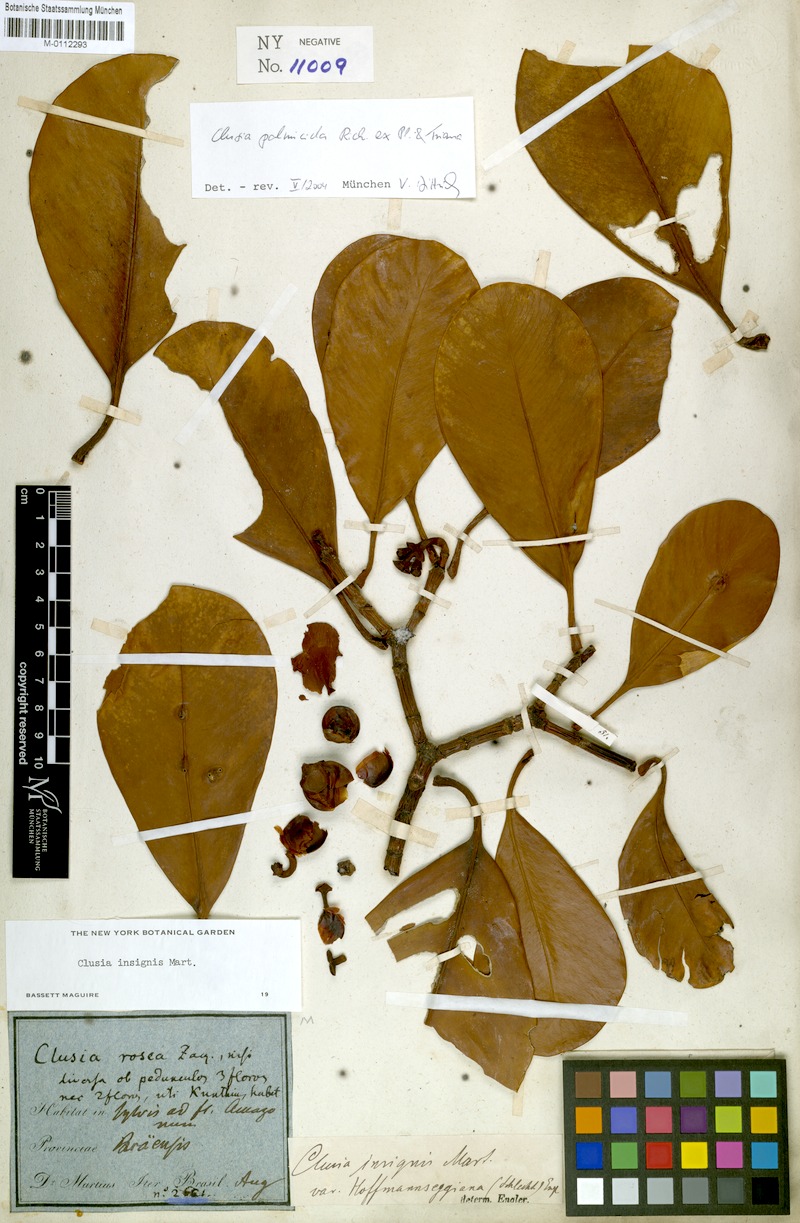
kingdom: Plantae
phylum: Tracheophyta
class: Magnoliopsida
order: Malpighiales
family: Clusiaceae
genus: Clusia
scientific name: Clusia palmicida
